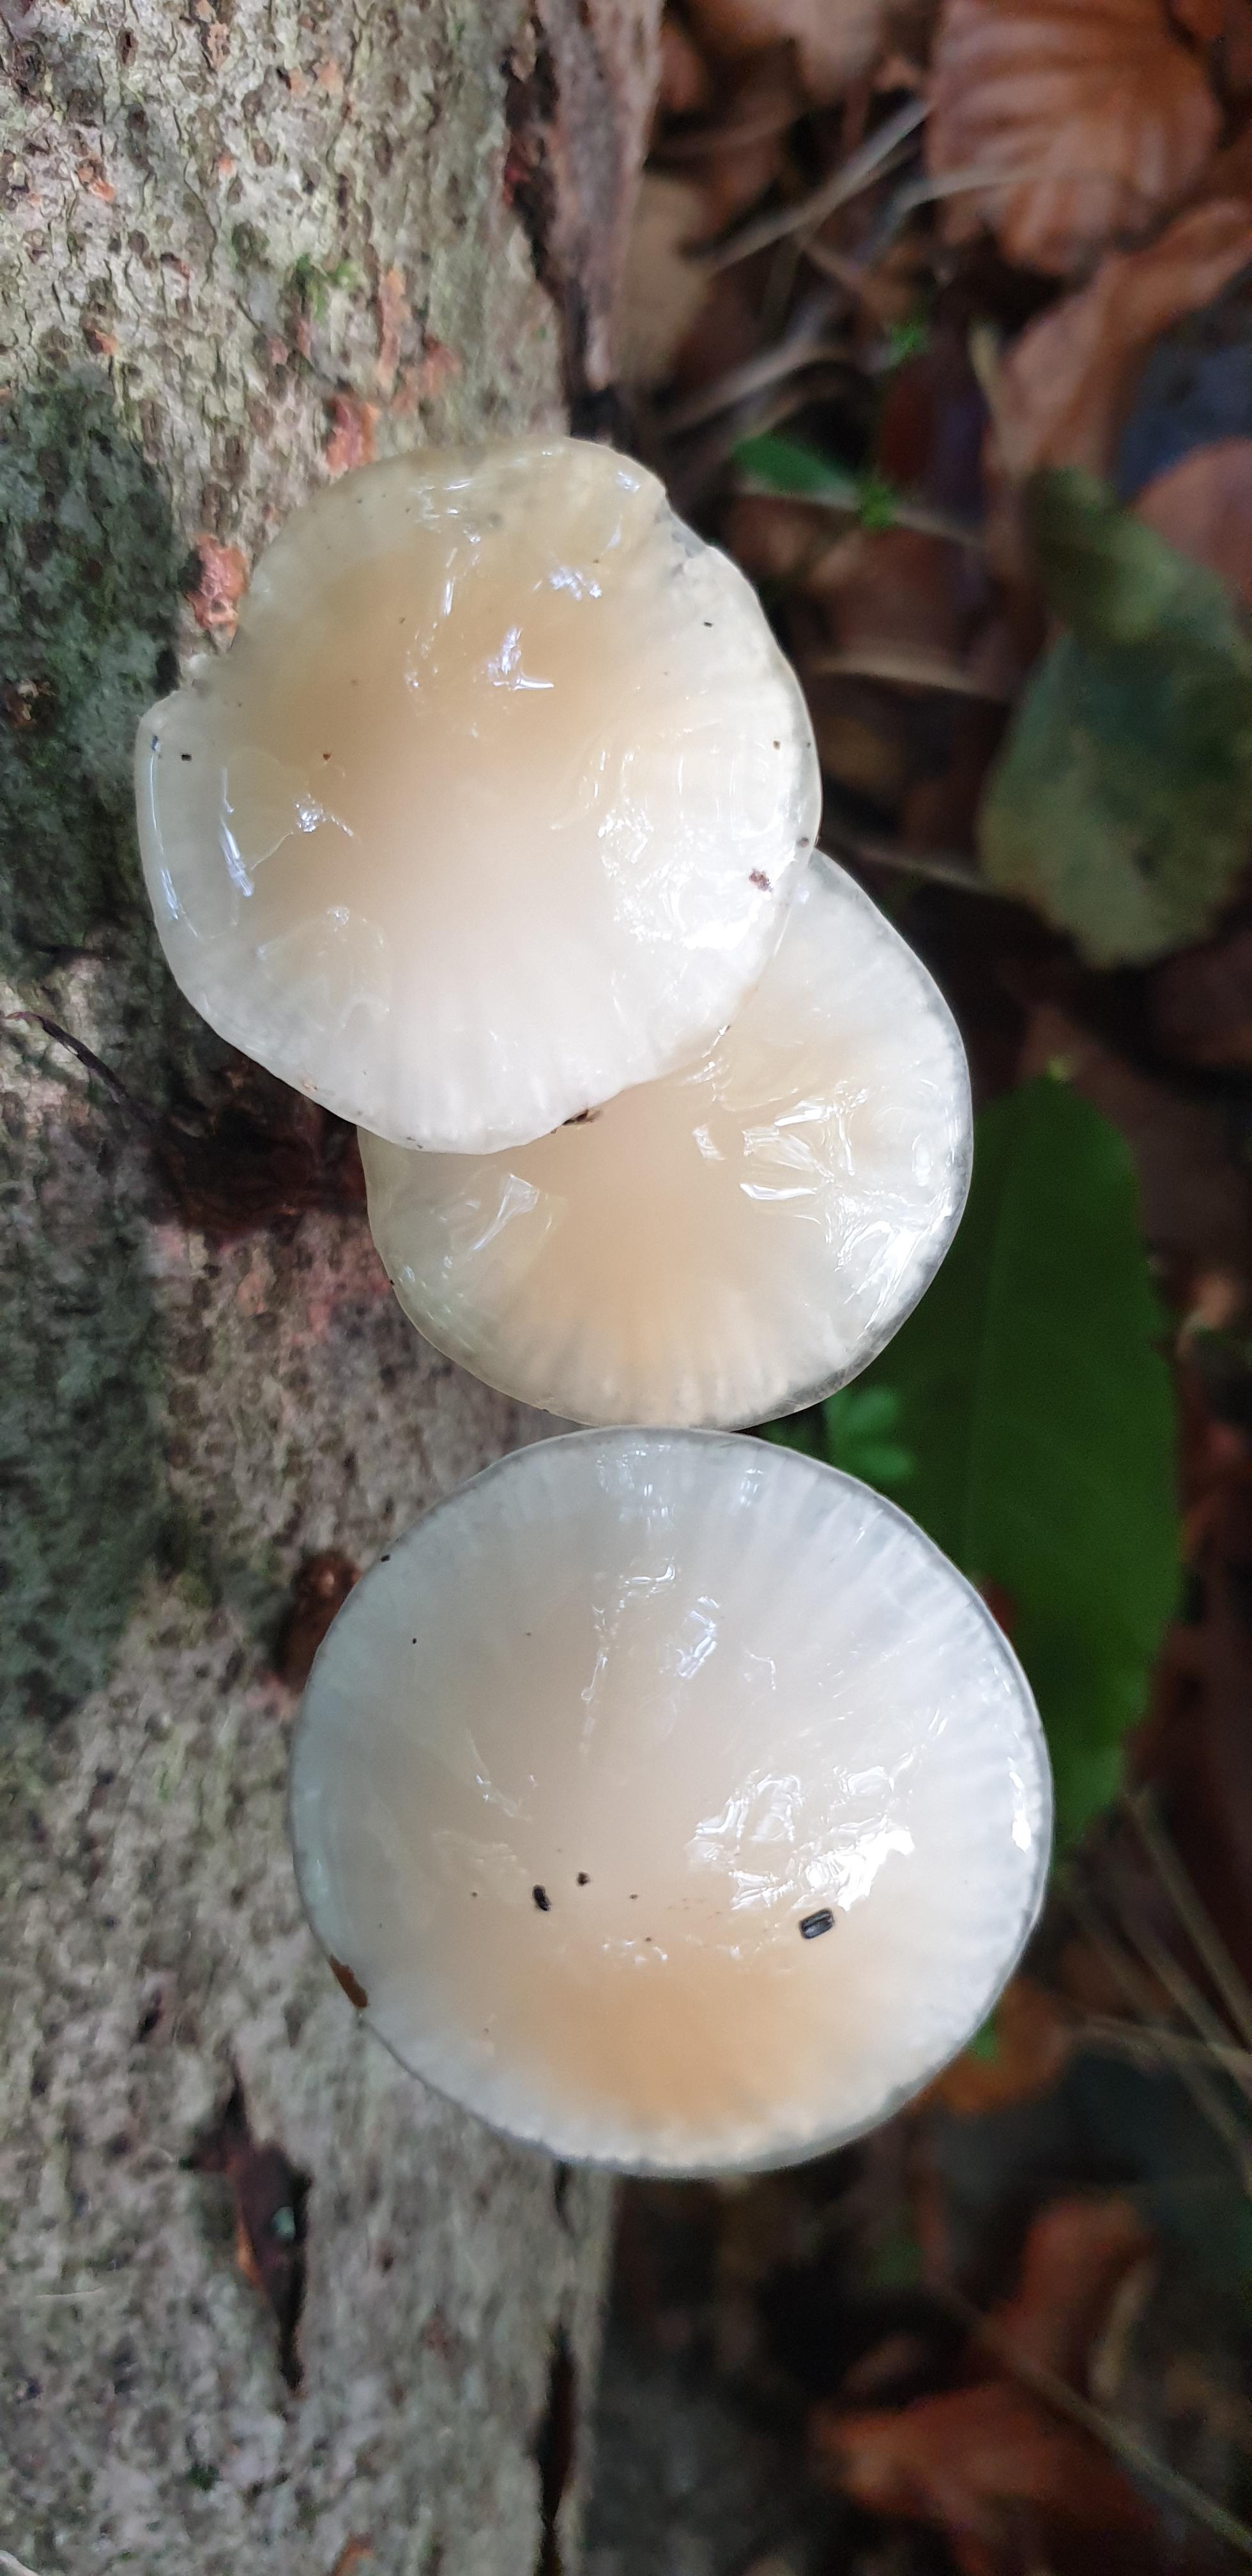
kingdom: Fungi
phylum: Basidiomycota
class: Agaricomycetes
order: Agaricales
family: Physalacriaceae
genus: Mucidula
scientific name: Mucidula mucida
